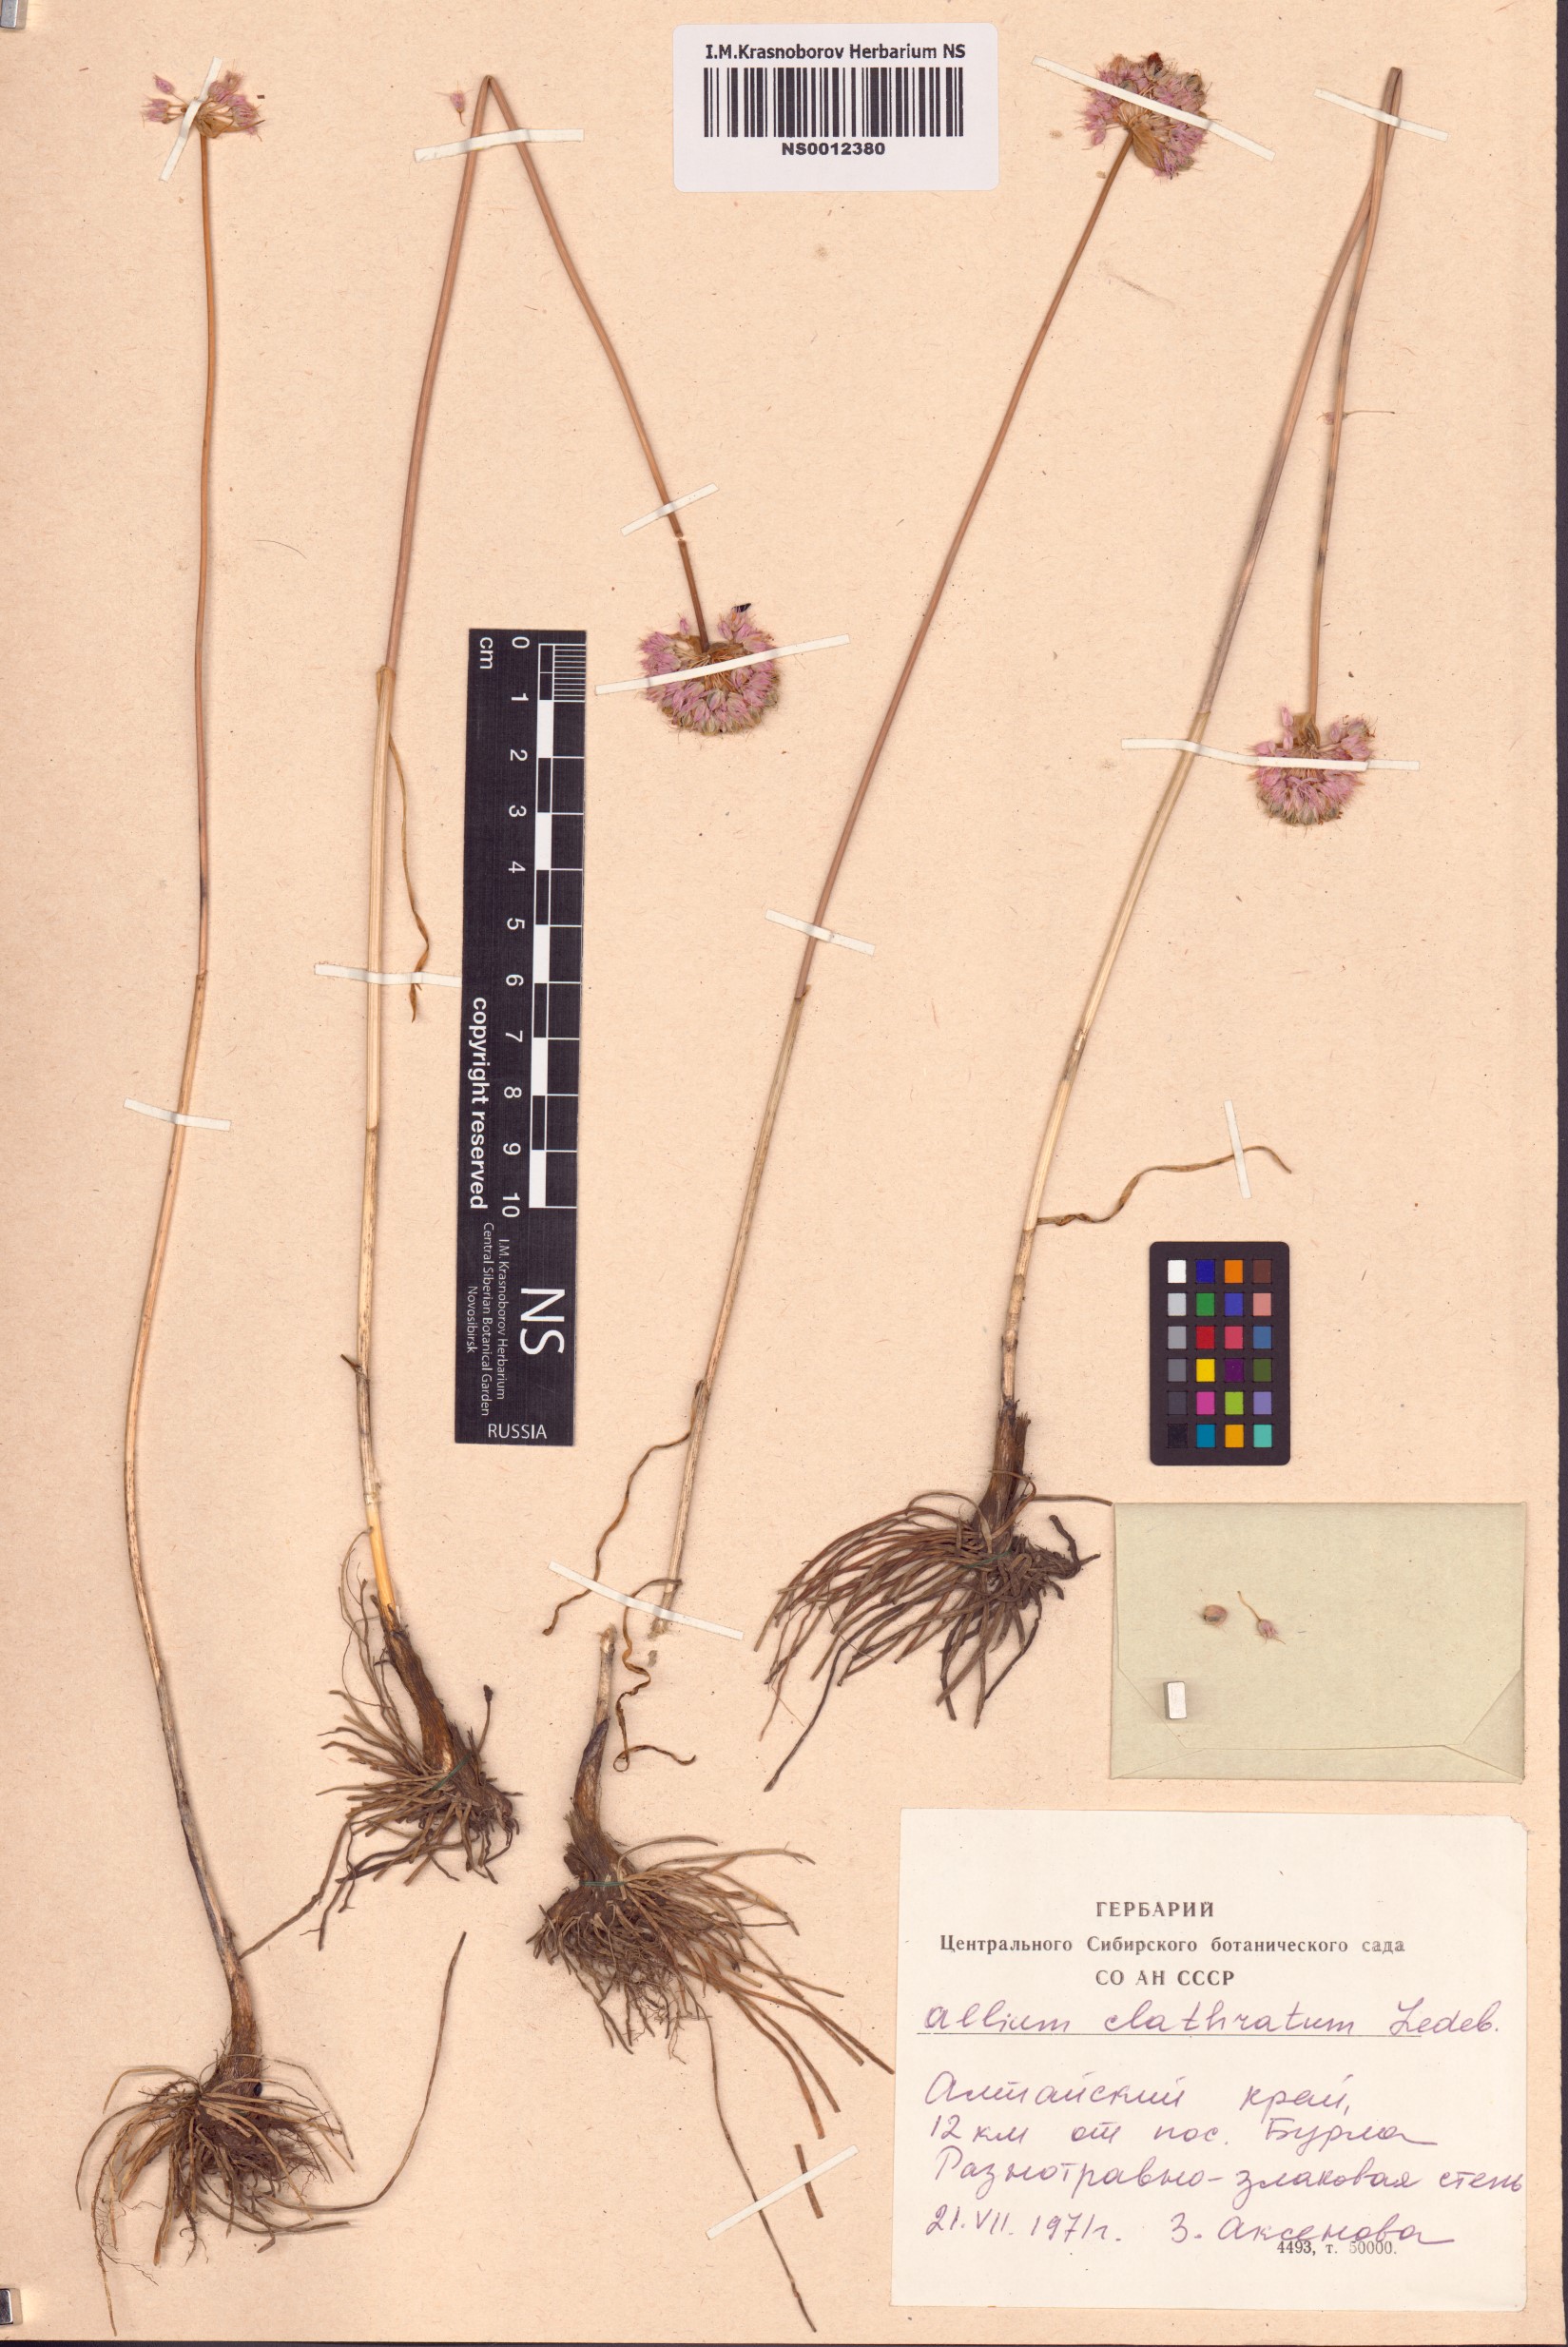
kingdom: Plantae
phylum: Tracheophyta
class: Liliopsida
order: Asparagales
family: Amaryllidaceae
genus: Allium
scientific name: Allium clathratum
